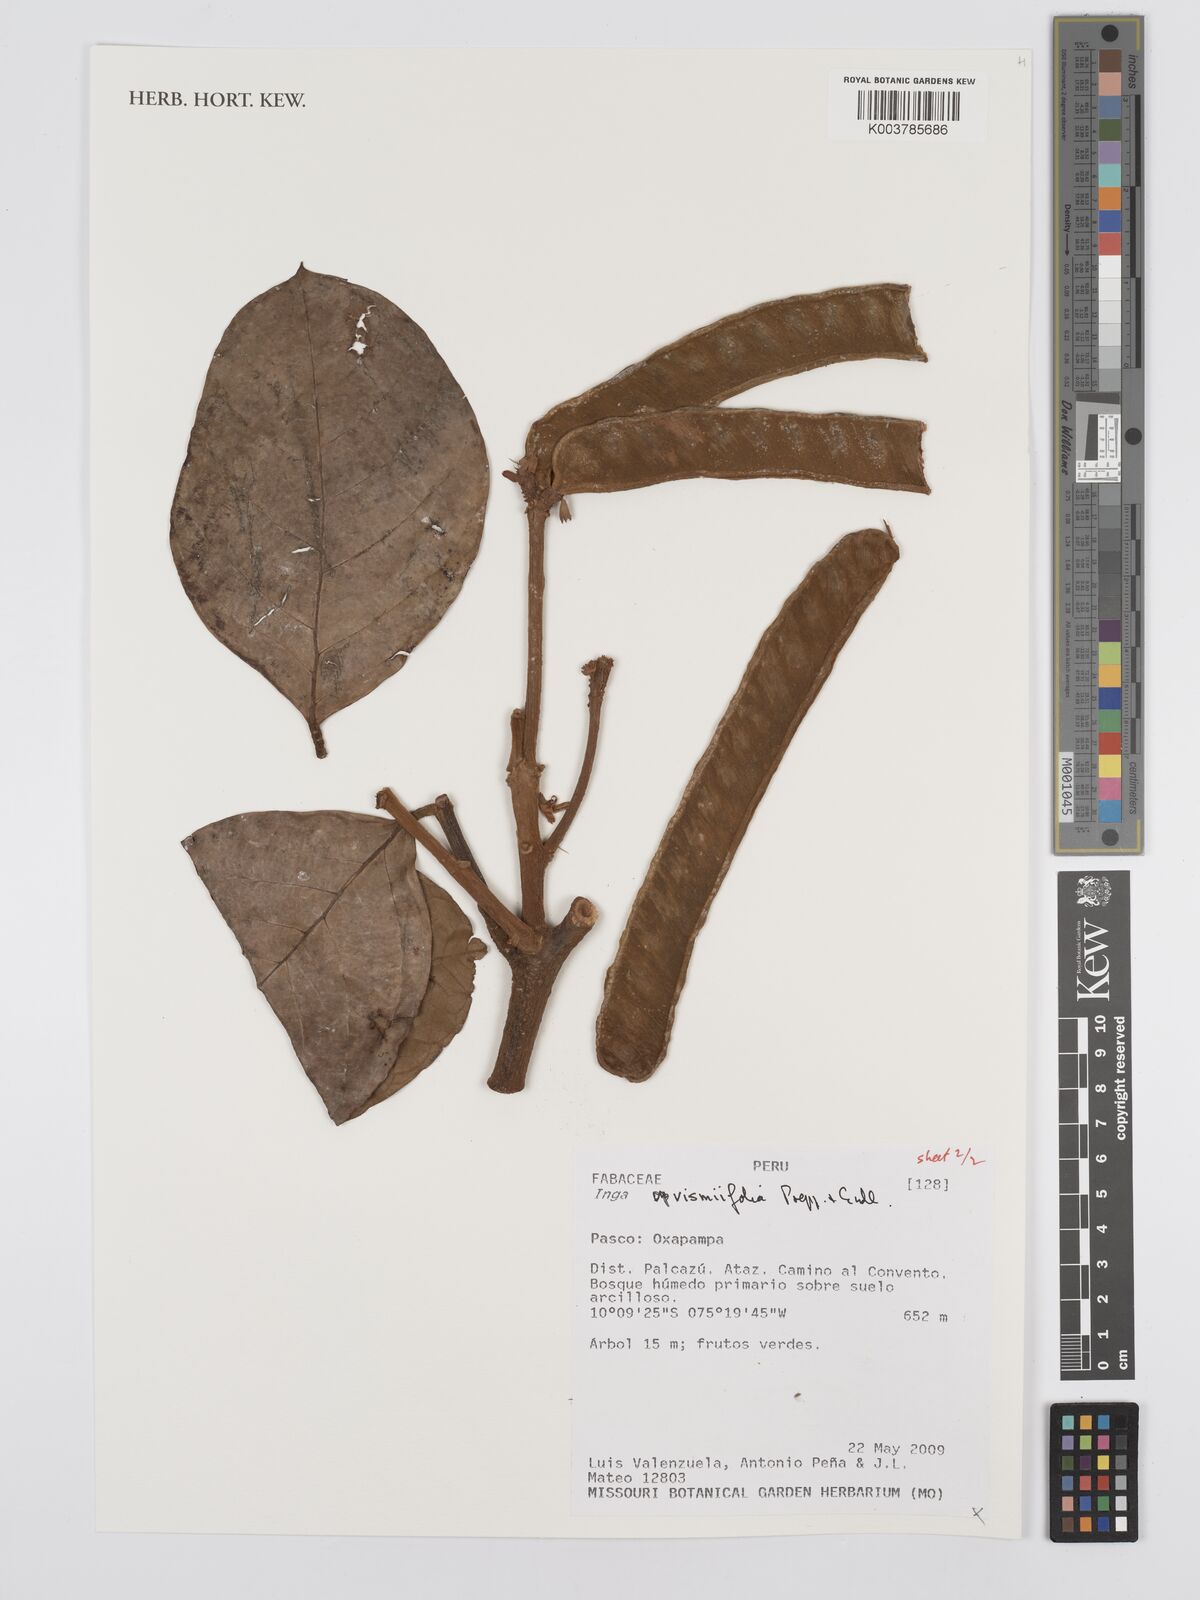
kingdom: Plantae
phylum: Tracheophyta
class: Magnoliopsida
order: Fabales
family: Fabaceae
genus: Inga
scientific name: Inga vismiifolia
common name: Howler monkey inga
